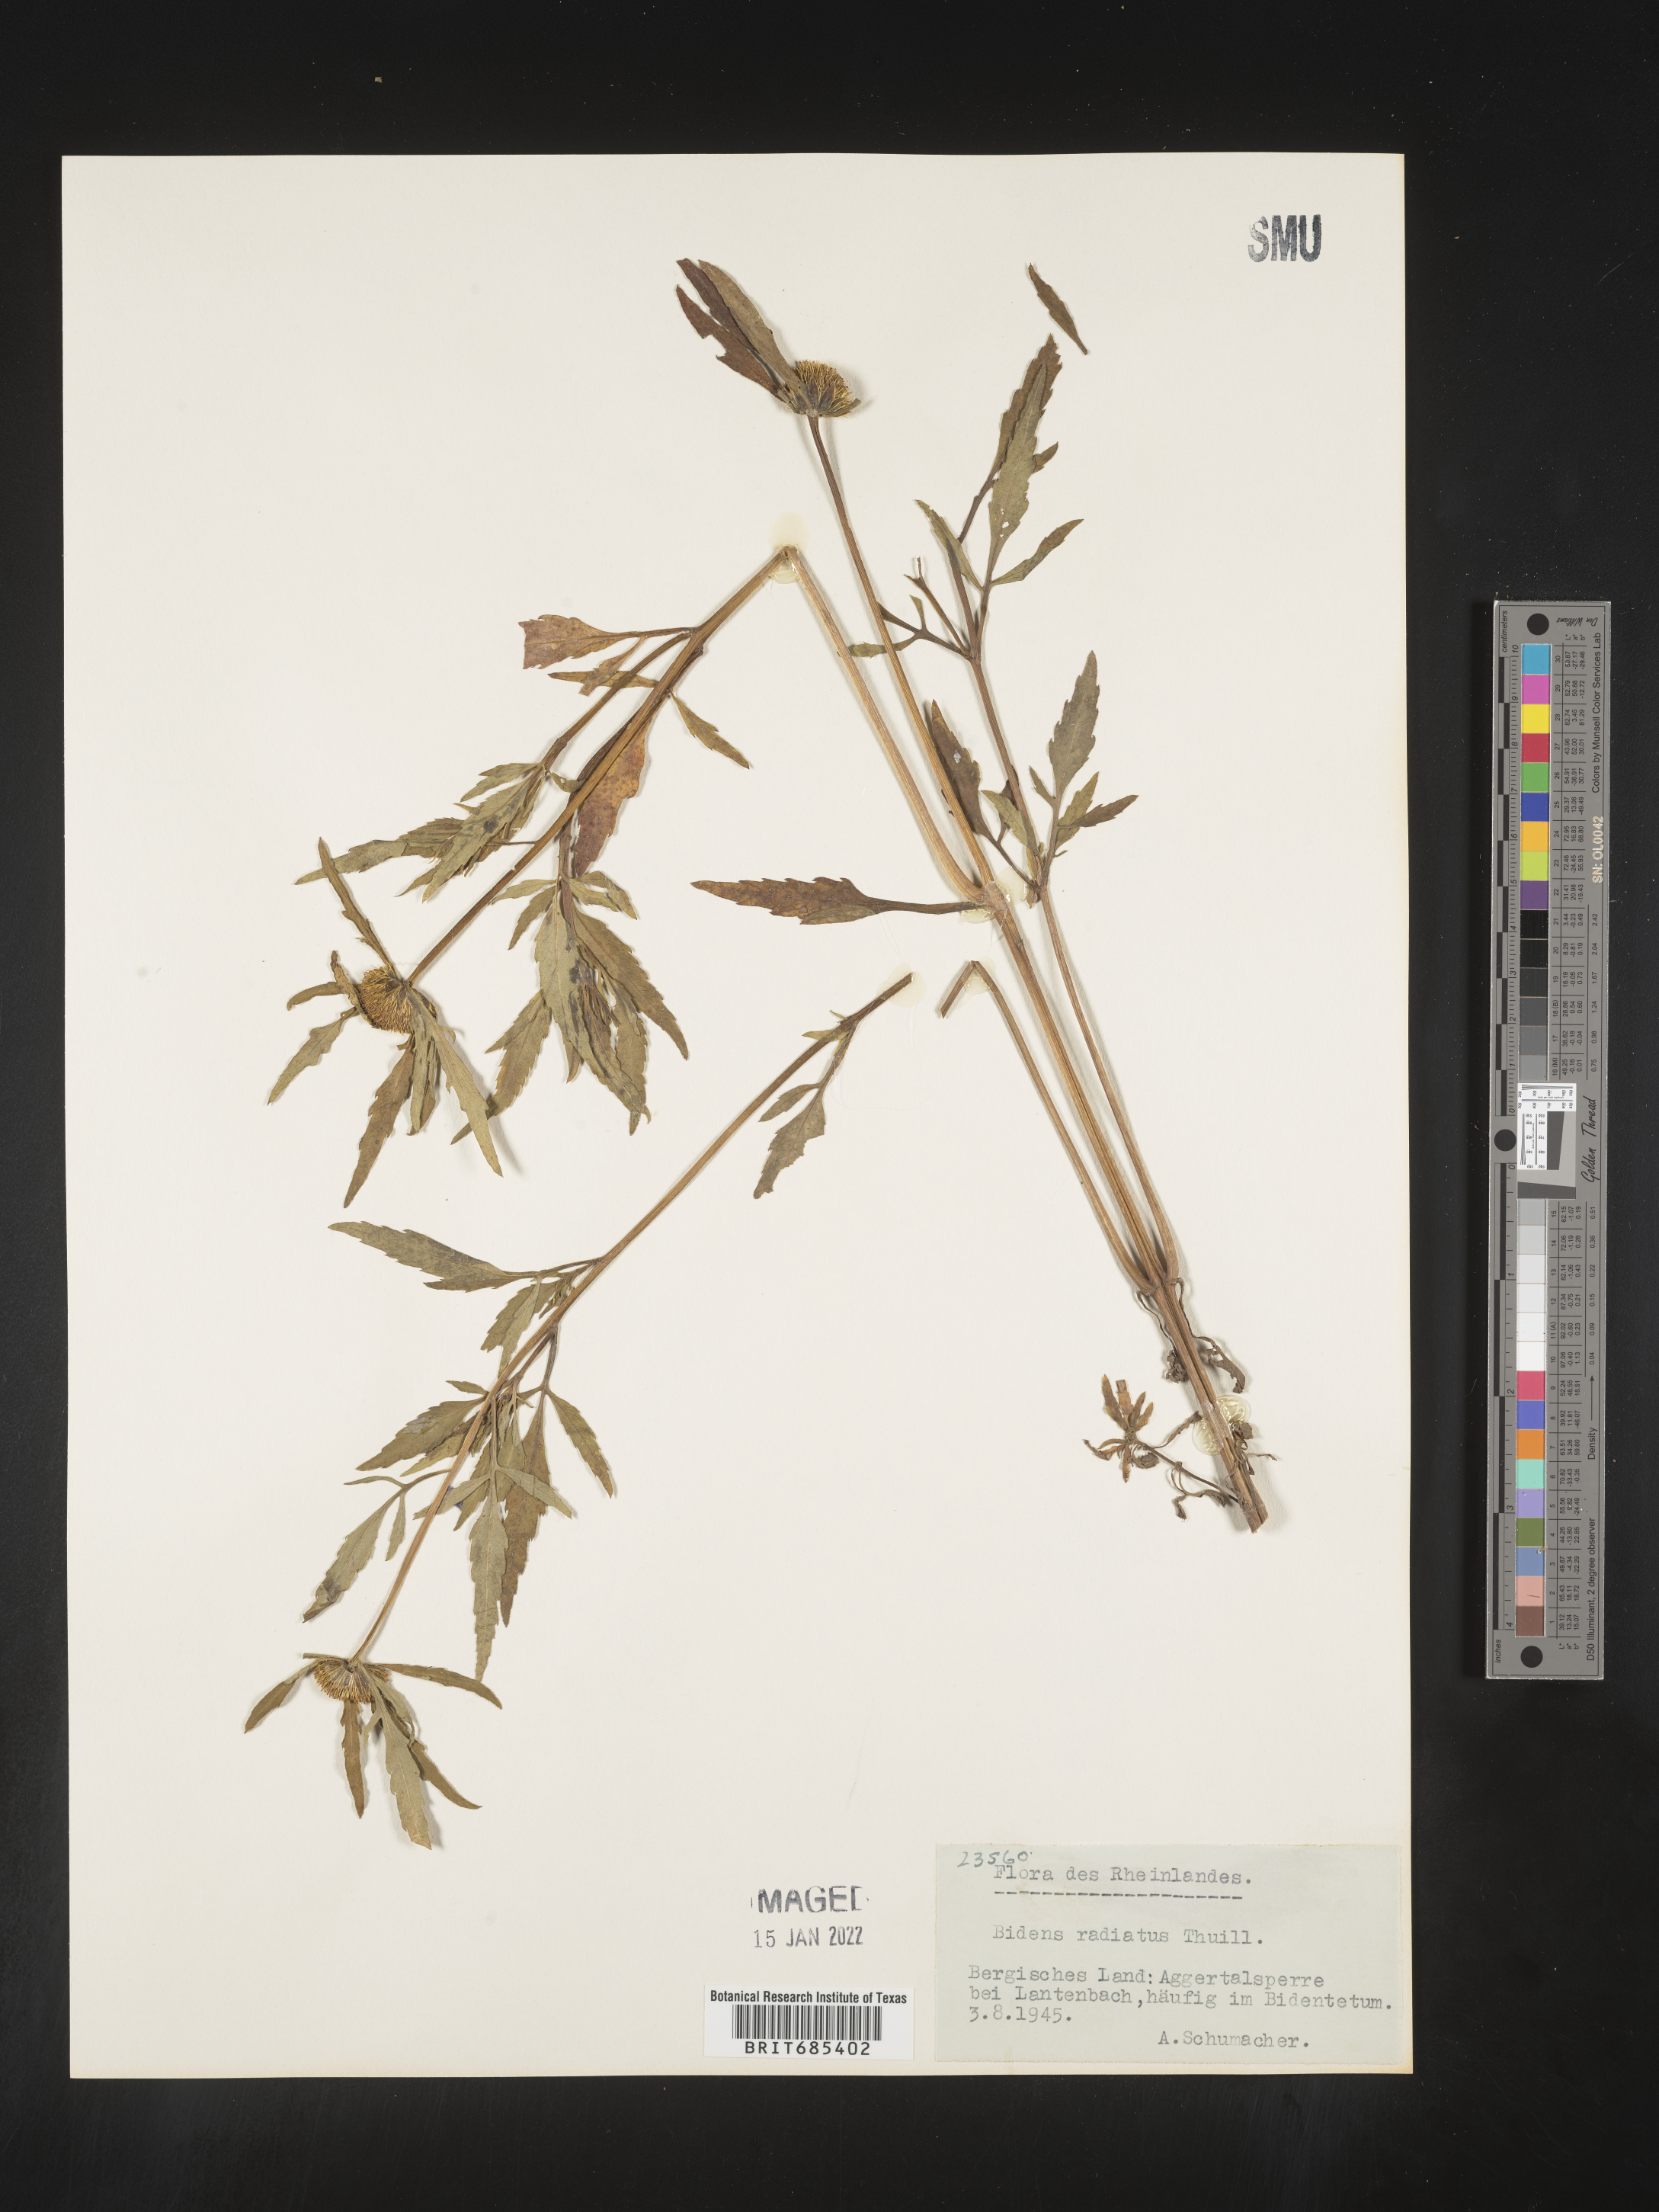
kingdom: Plantae
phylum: Tracheophyta
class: Magnoliopsida
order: Asterales
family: Asteraceae
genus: Bidens
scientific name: Bidens
